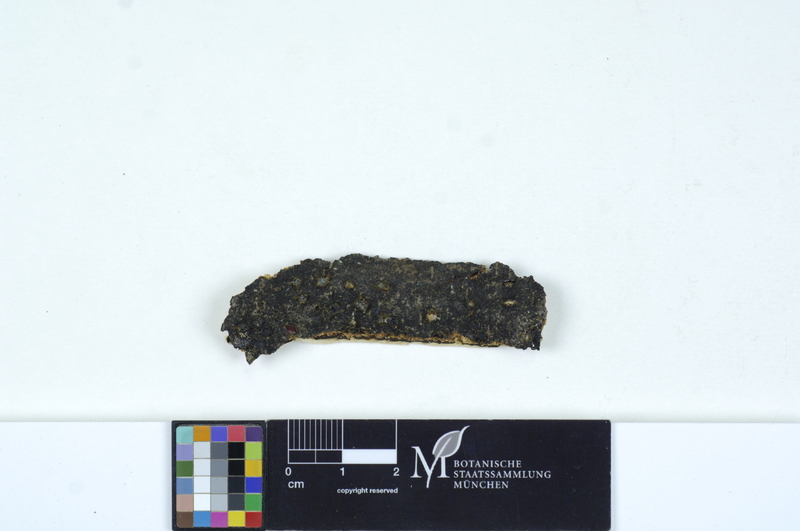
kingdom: Fungi
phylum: Basidiomycota
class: Agaricomycetes
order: Auriculariales
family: Auriculariaceae
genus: Exidia
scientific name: Exidia thuretiana
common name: White brain
